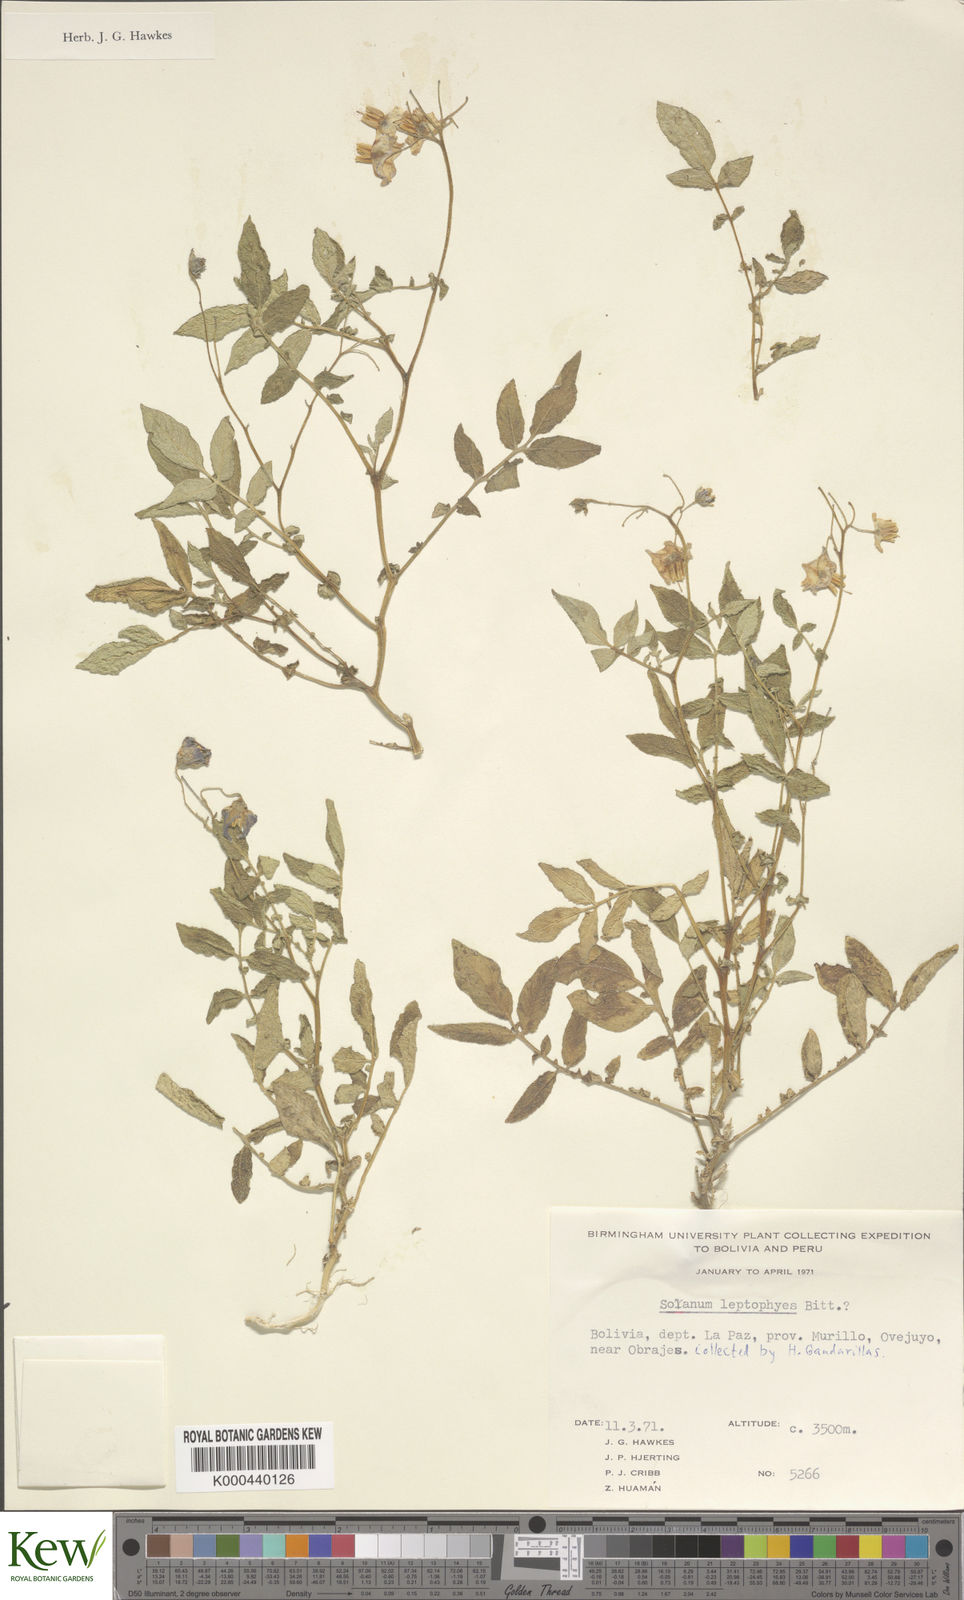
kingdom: Plantae
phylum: Tracheophyta
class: Magnoliopsida
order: Solanales
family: Solanaceae
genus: Solanum
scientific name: Solanum brevicaule
